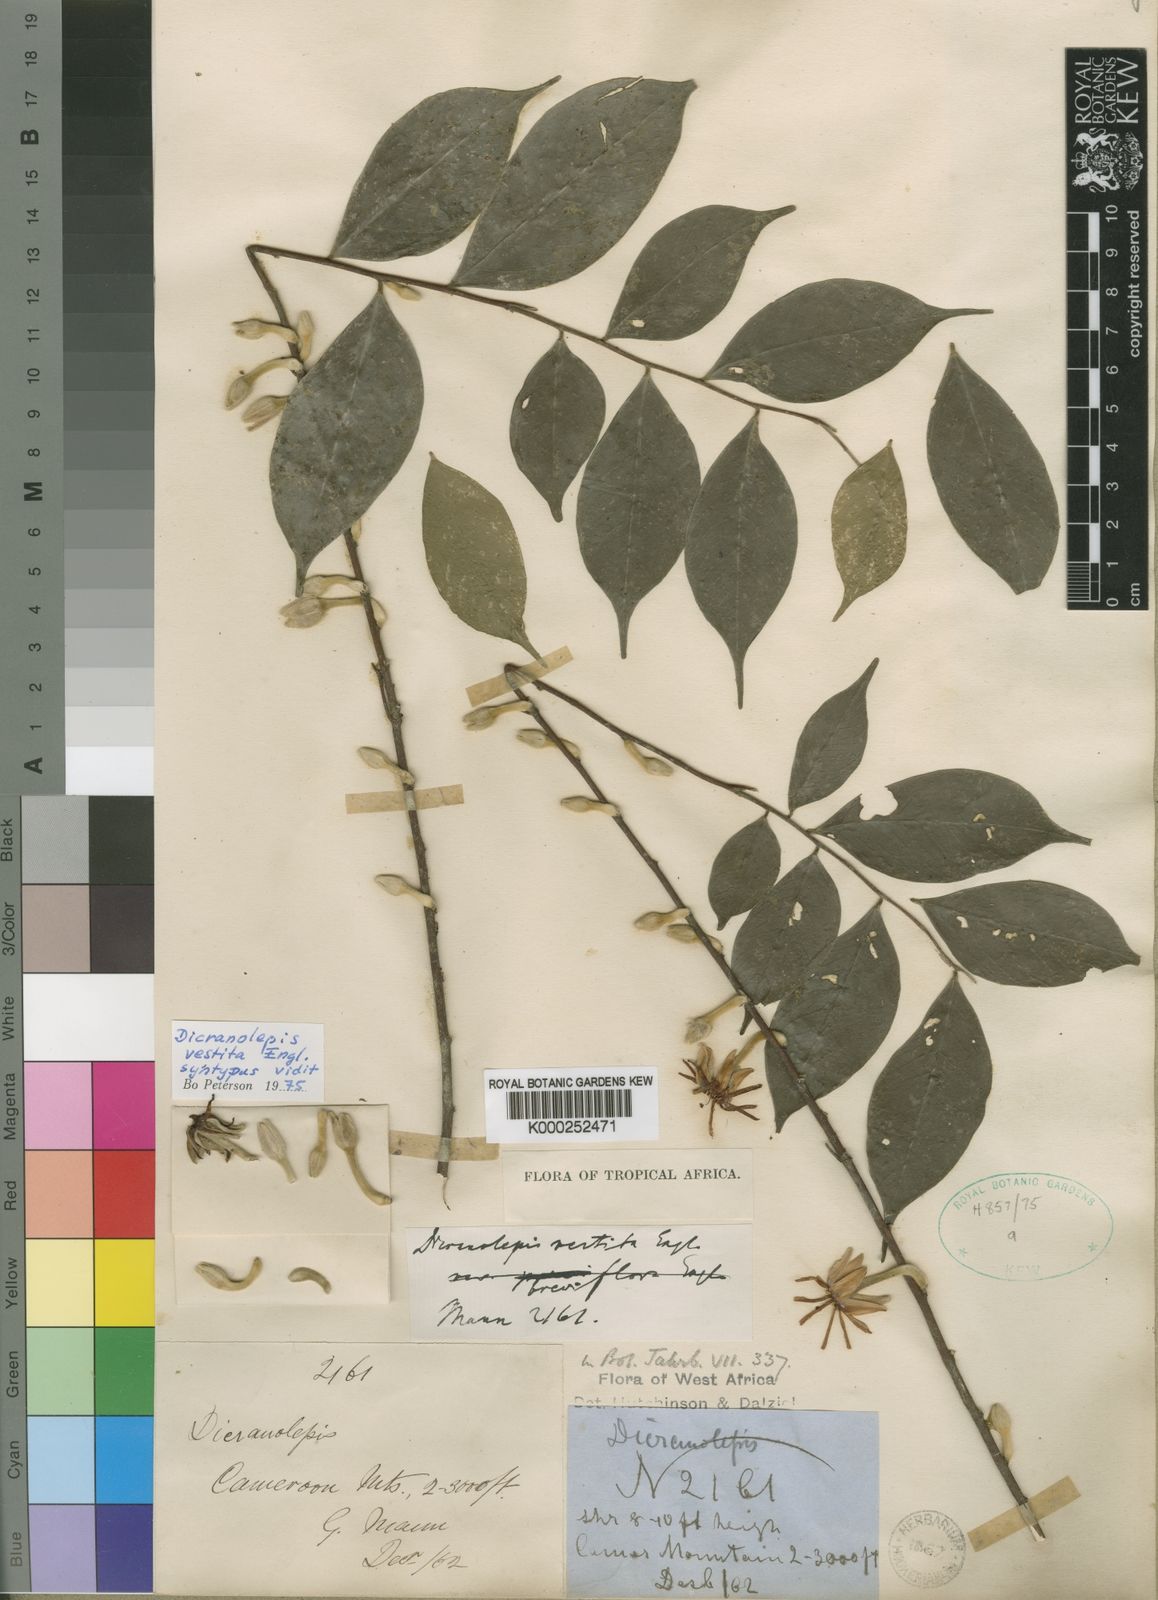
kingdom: Plantae
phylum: Tracheophyta
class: Magnoliopsida
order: Malvales
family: Thymelaeaceae
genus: Dicranolepis
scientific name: Dicranolepis vestita
